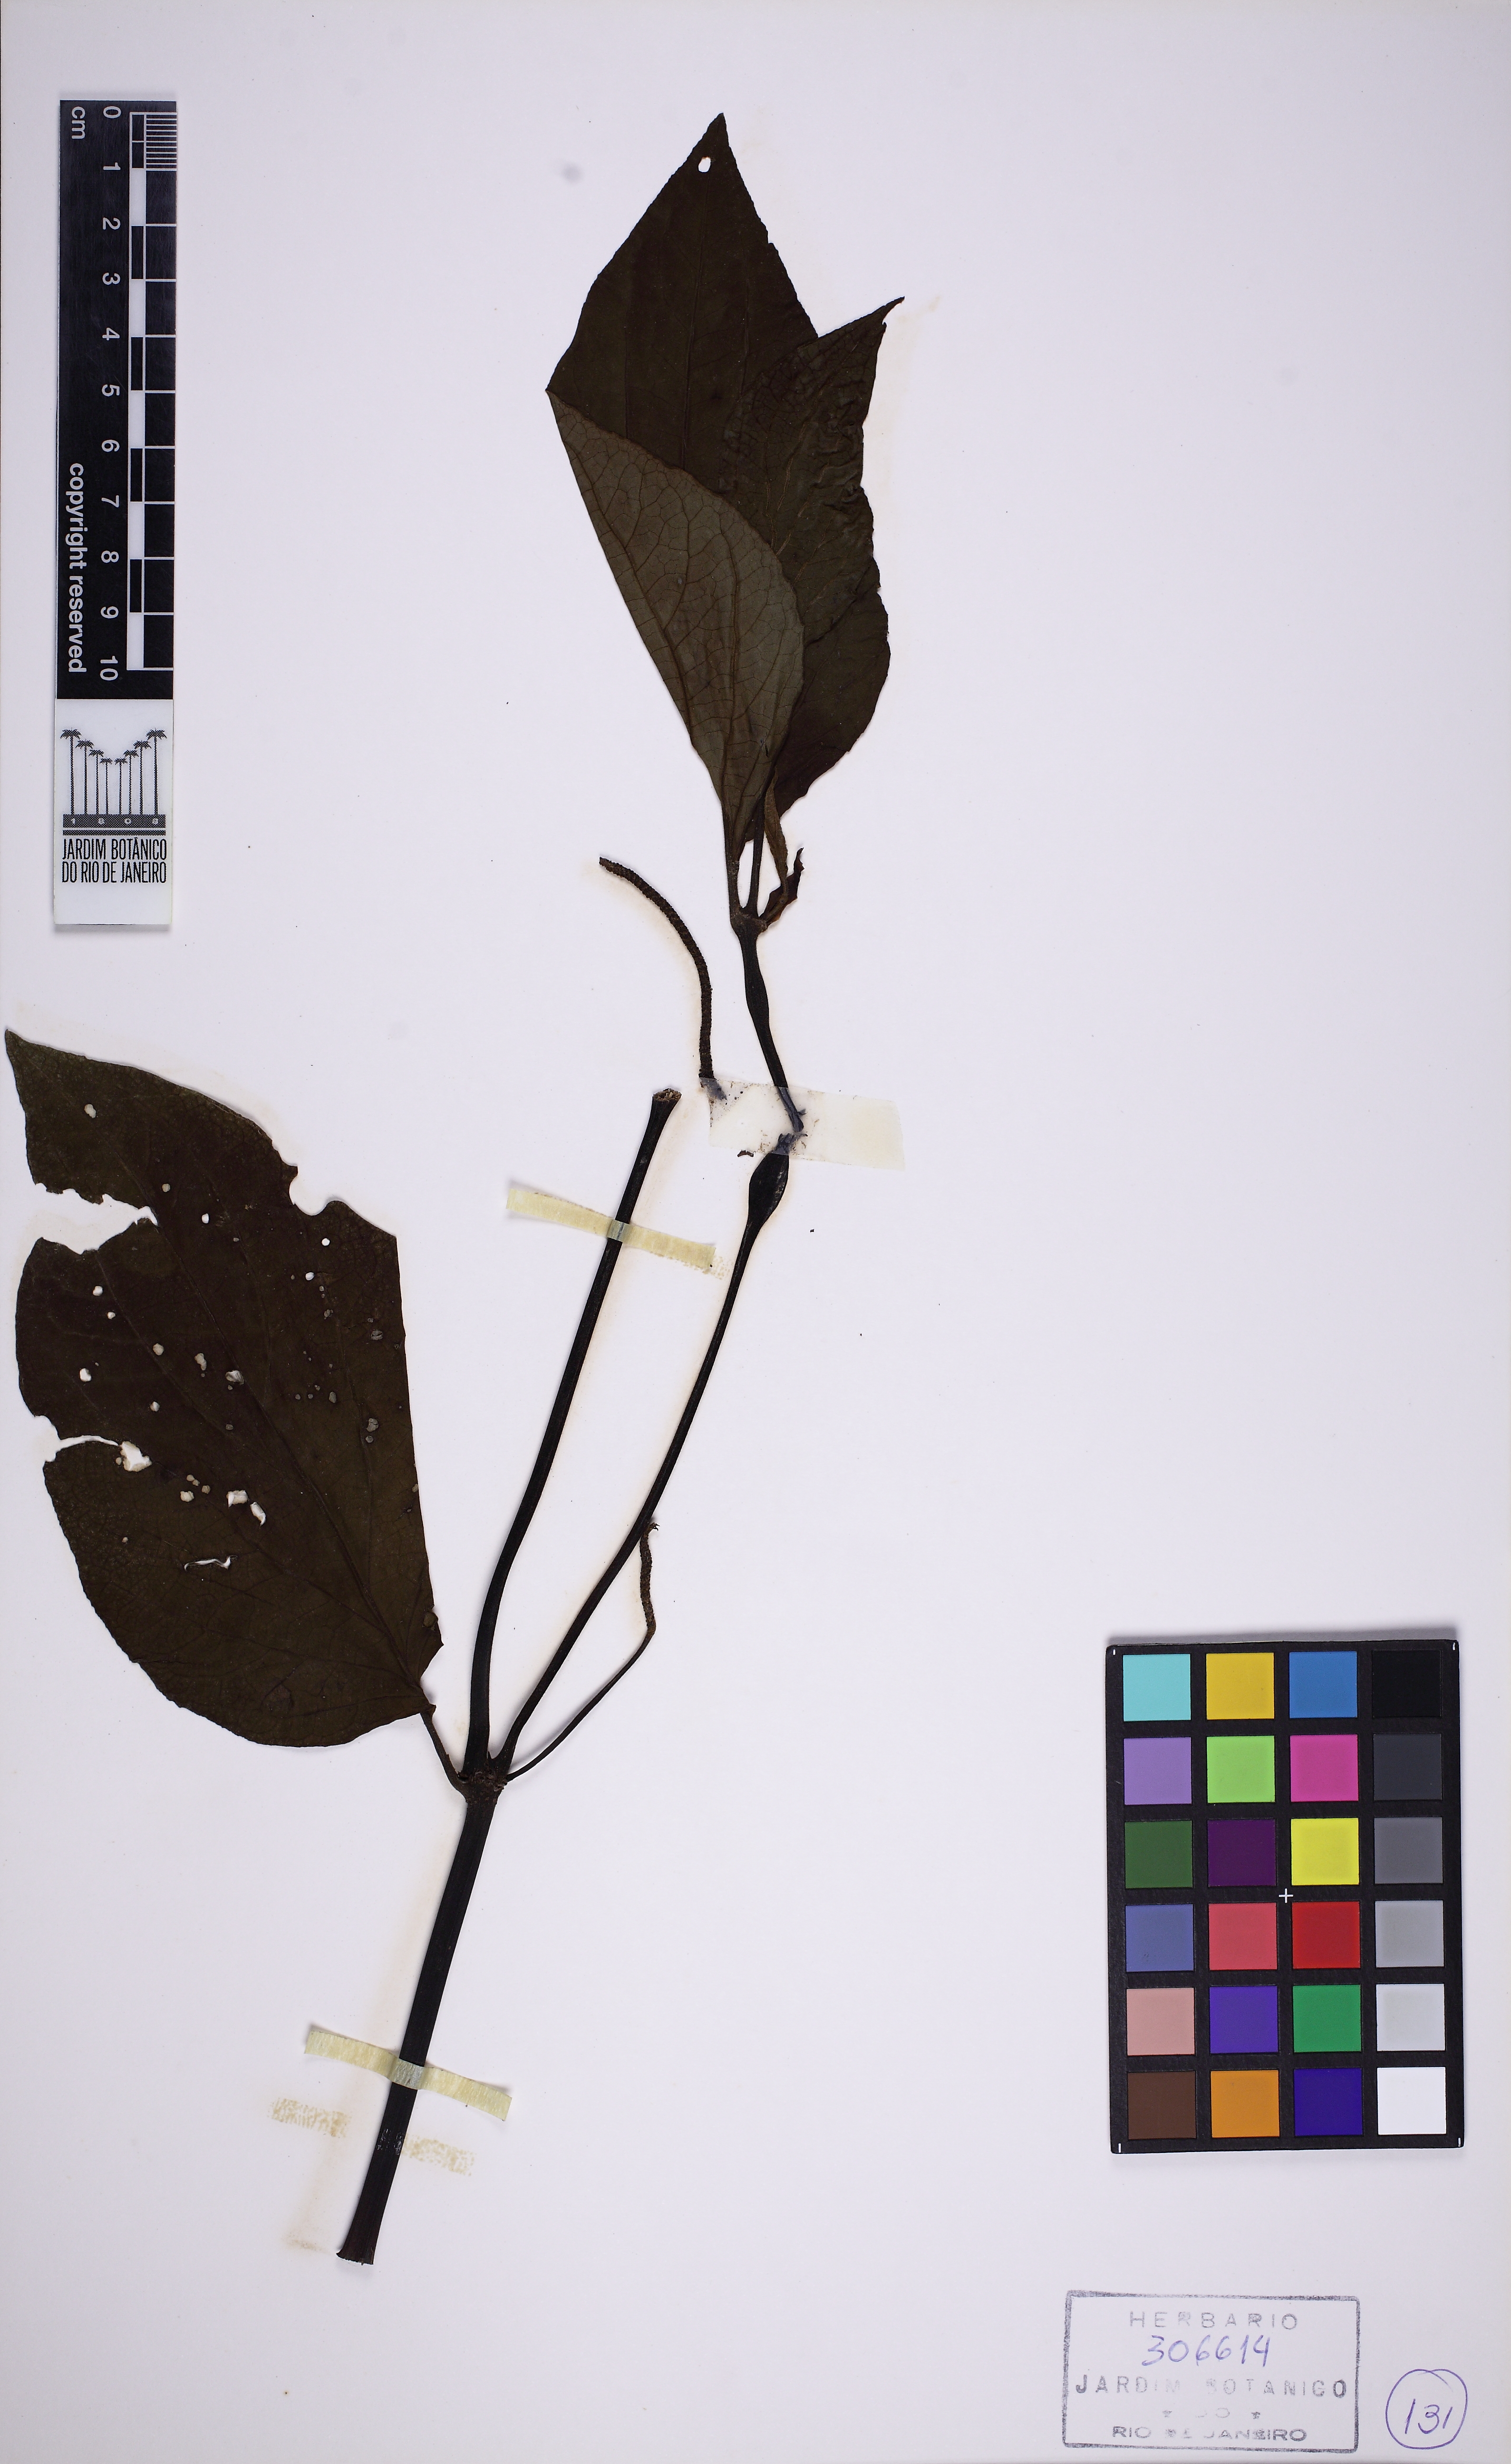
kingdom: Plantae
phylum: Tracheophyta
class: Magnoliopsida
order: Piperales
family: Piperaceae
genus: Piper
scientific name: Piper cabralanum
